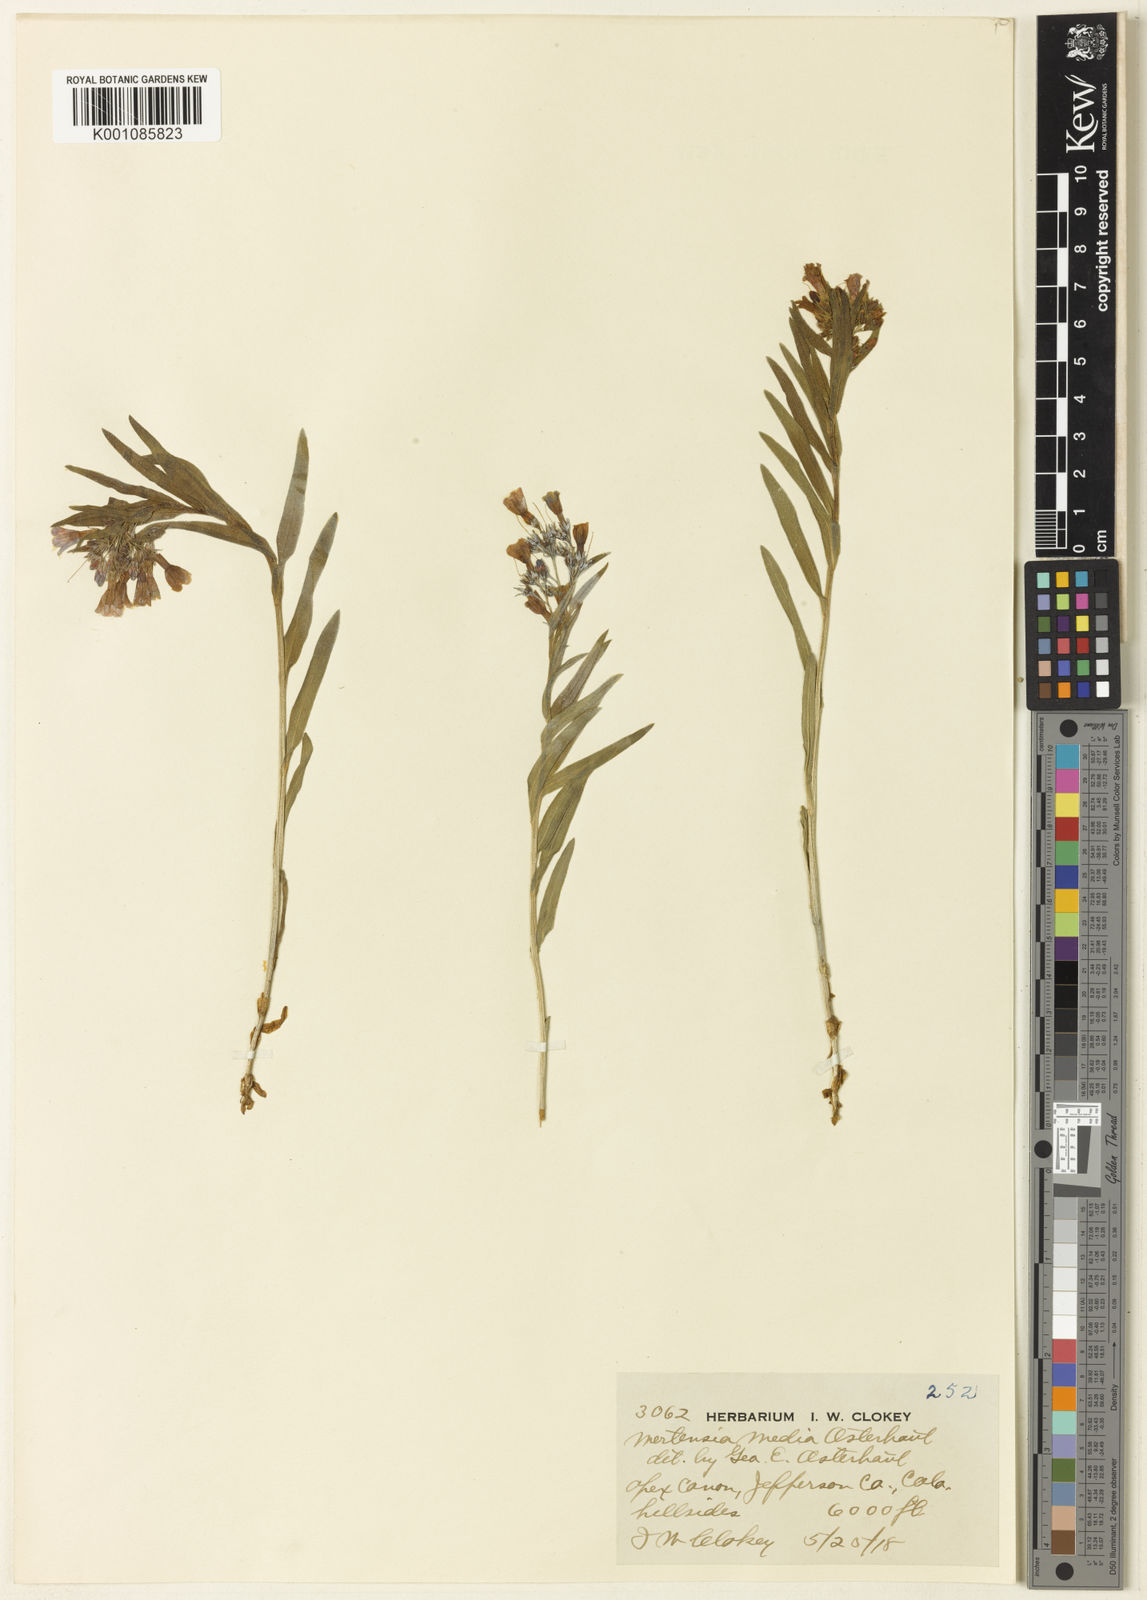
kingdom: Plantae
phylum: Tracheophyta
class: Magnoliopsida
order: Boraginales
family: Boraginaceae
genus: Mertensia
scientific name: Mertensia lanceolata
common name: Lance-leaved bluebells
